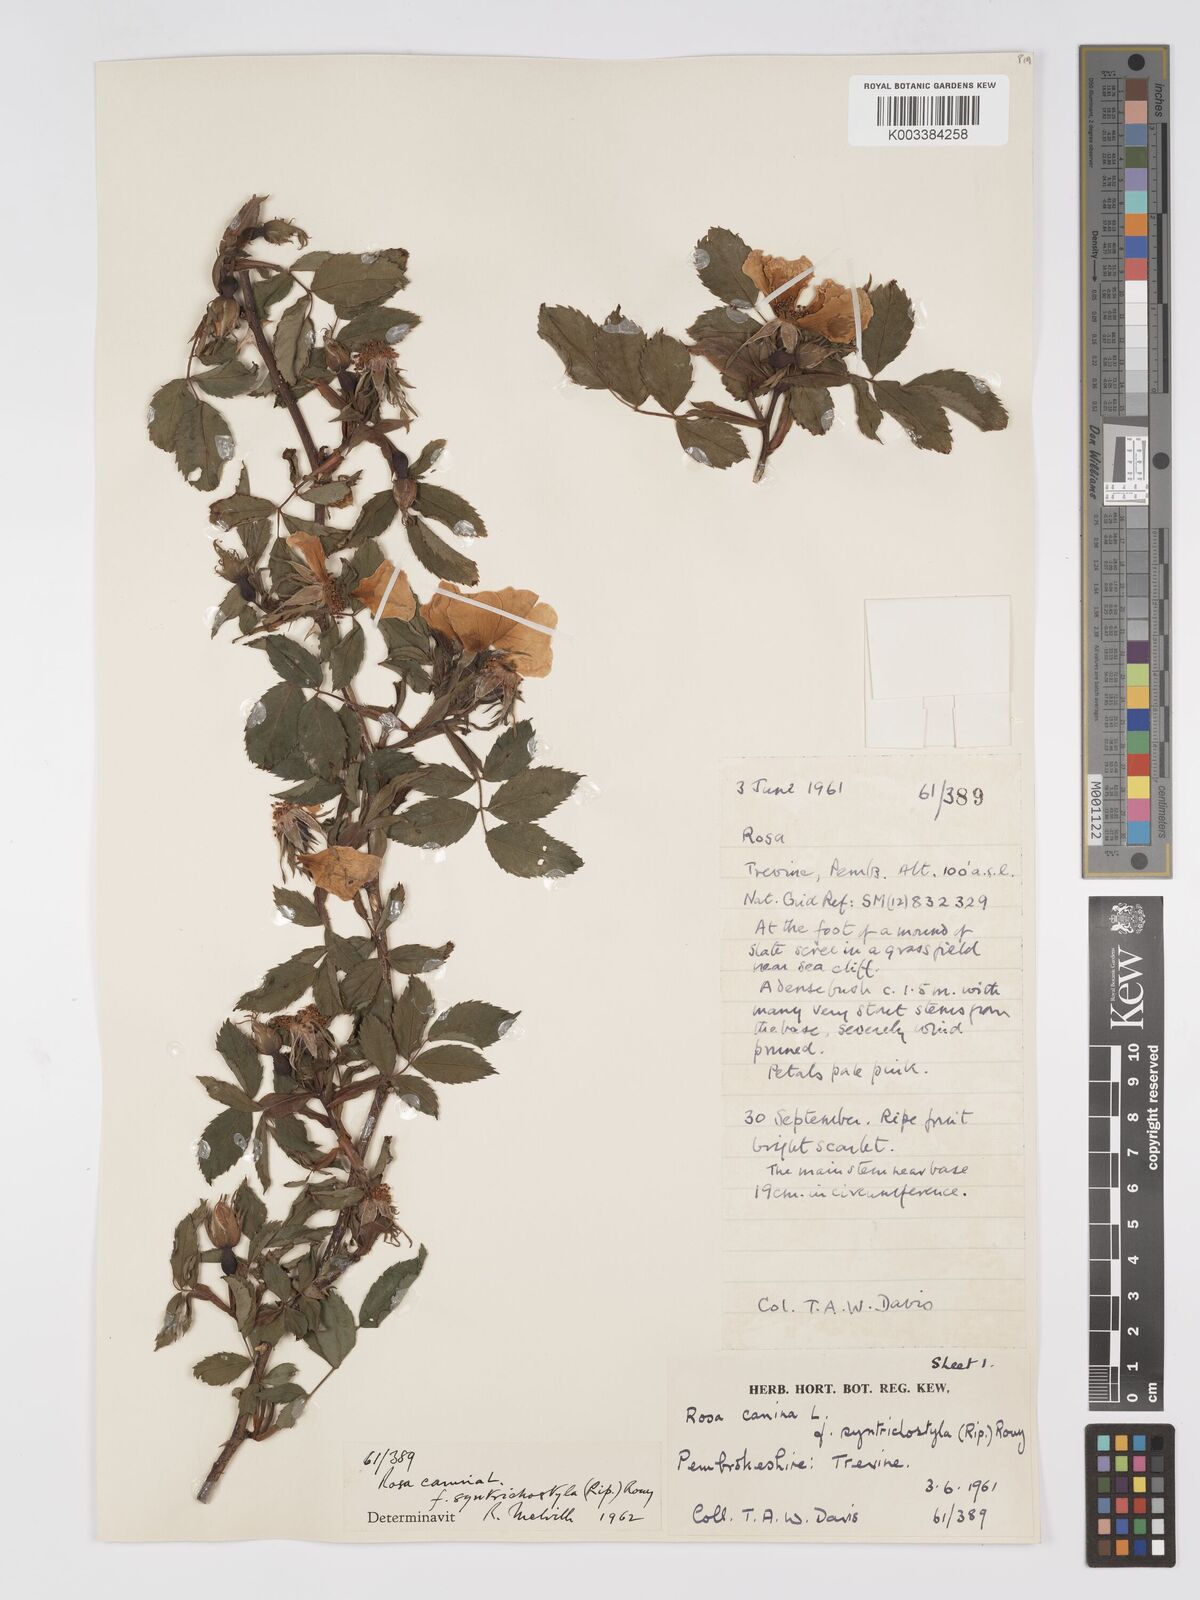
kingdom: Plantae
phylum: Tracheophyta
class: Magnoliopsida
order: Rosales
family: Rosaceae
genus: Rosa
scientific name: Rosa canina
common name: Dog rose
